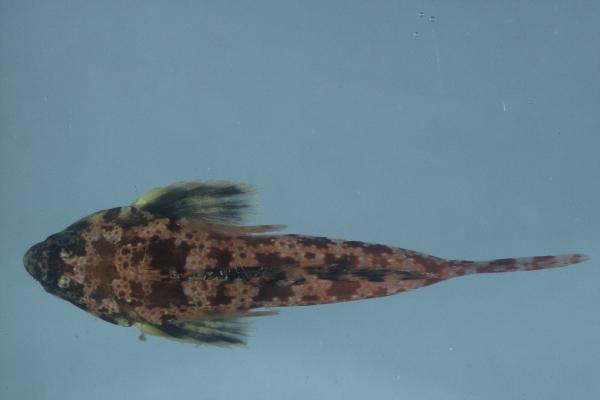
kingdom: Animalia
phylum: Chordata
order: Perciformes
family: Callionymidae
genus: Synchiropus
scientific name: Synchiropus stellatus
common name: Starry dragonet
